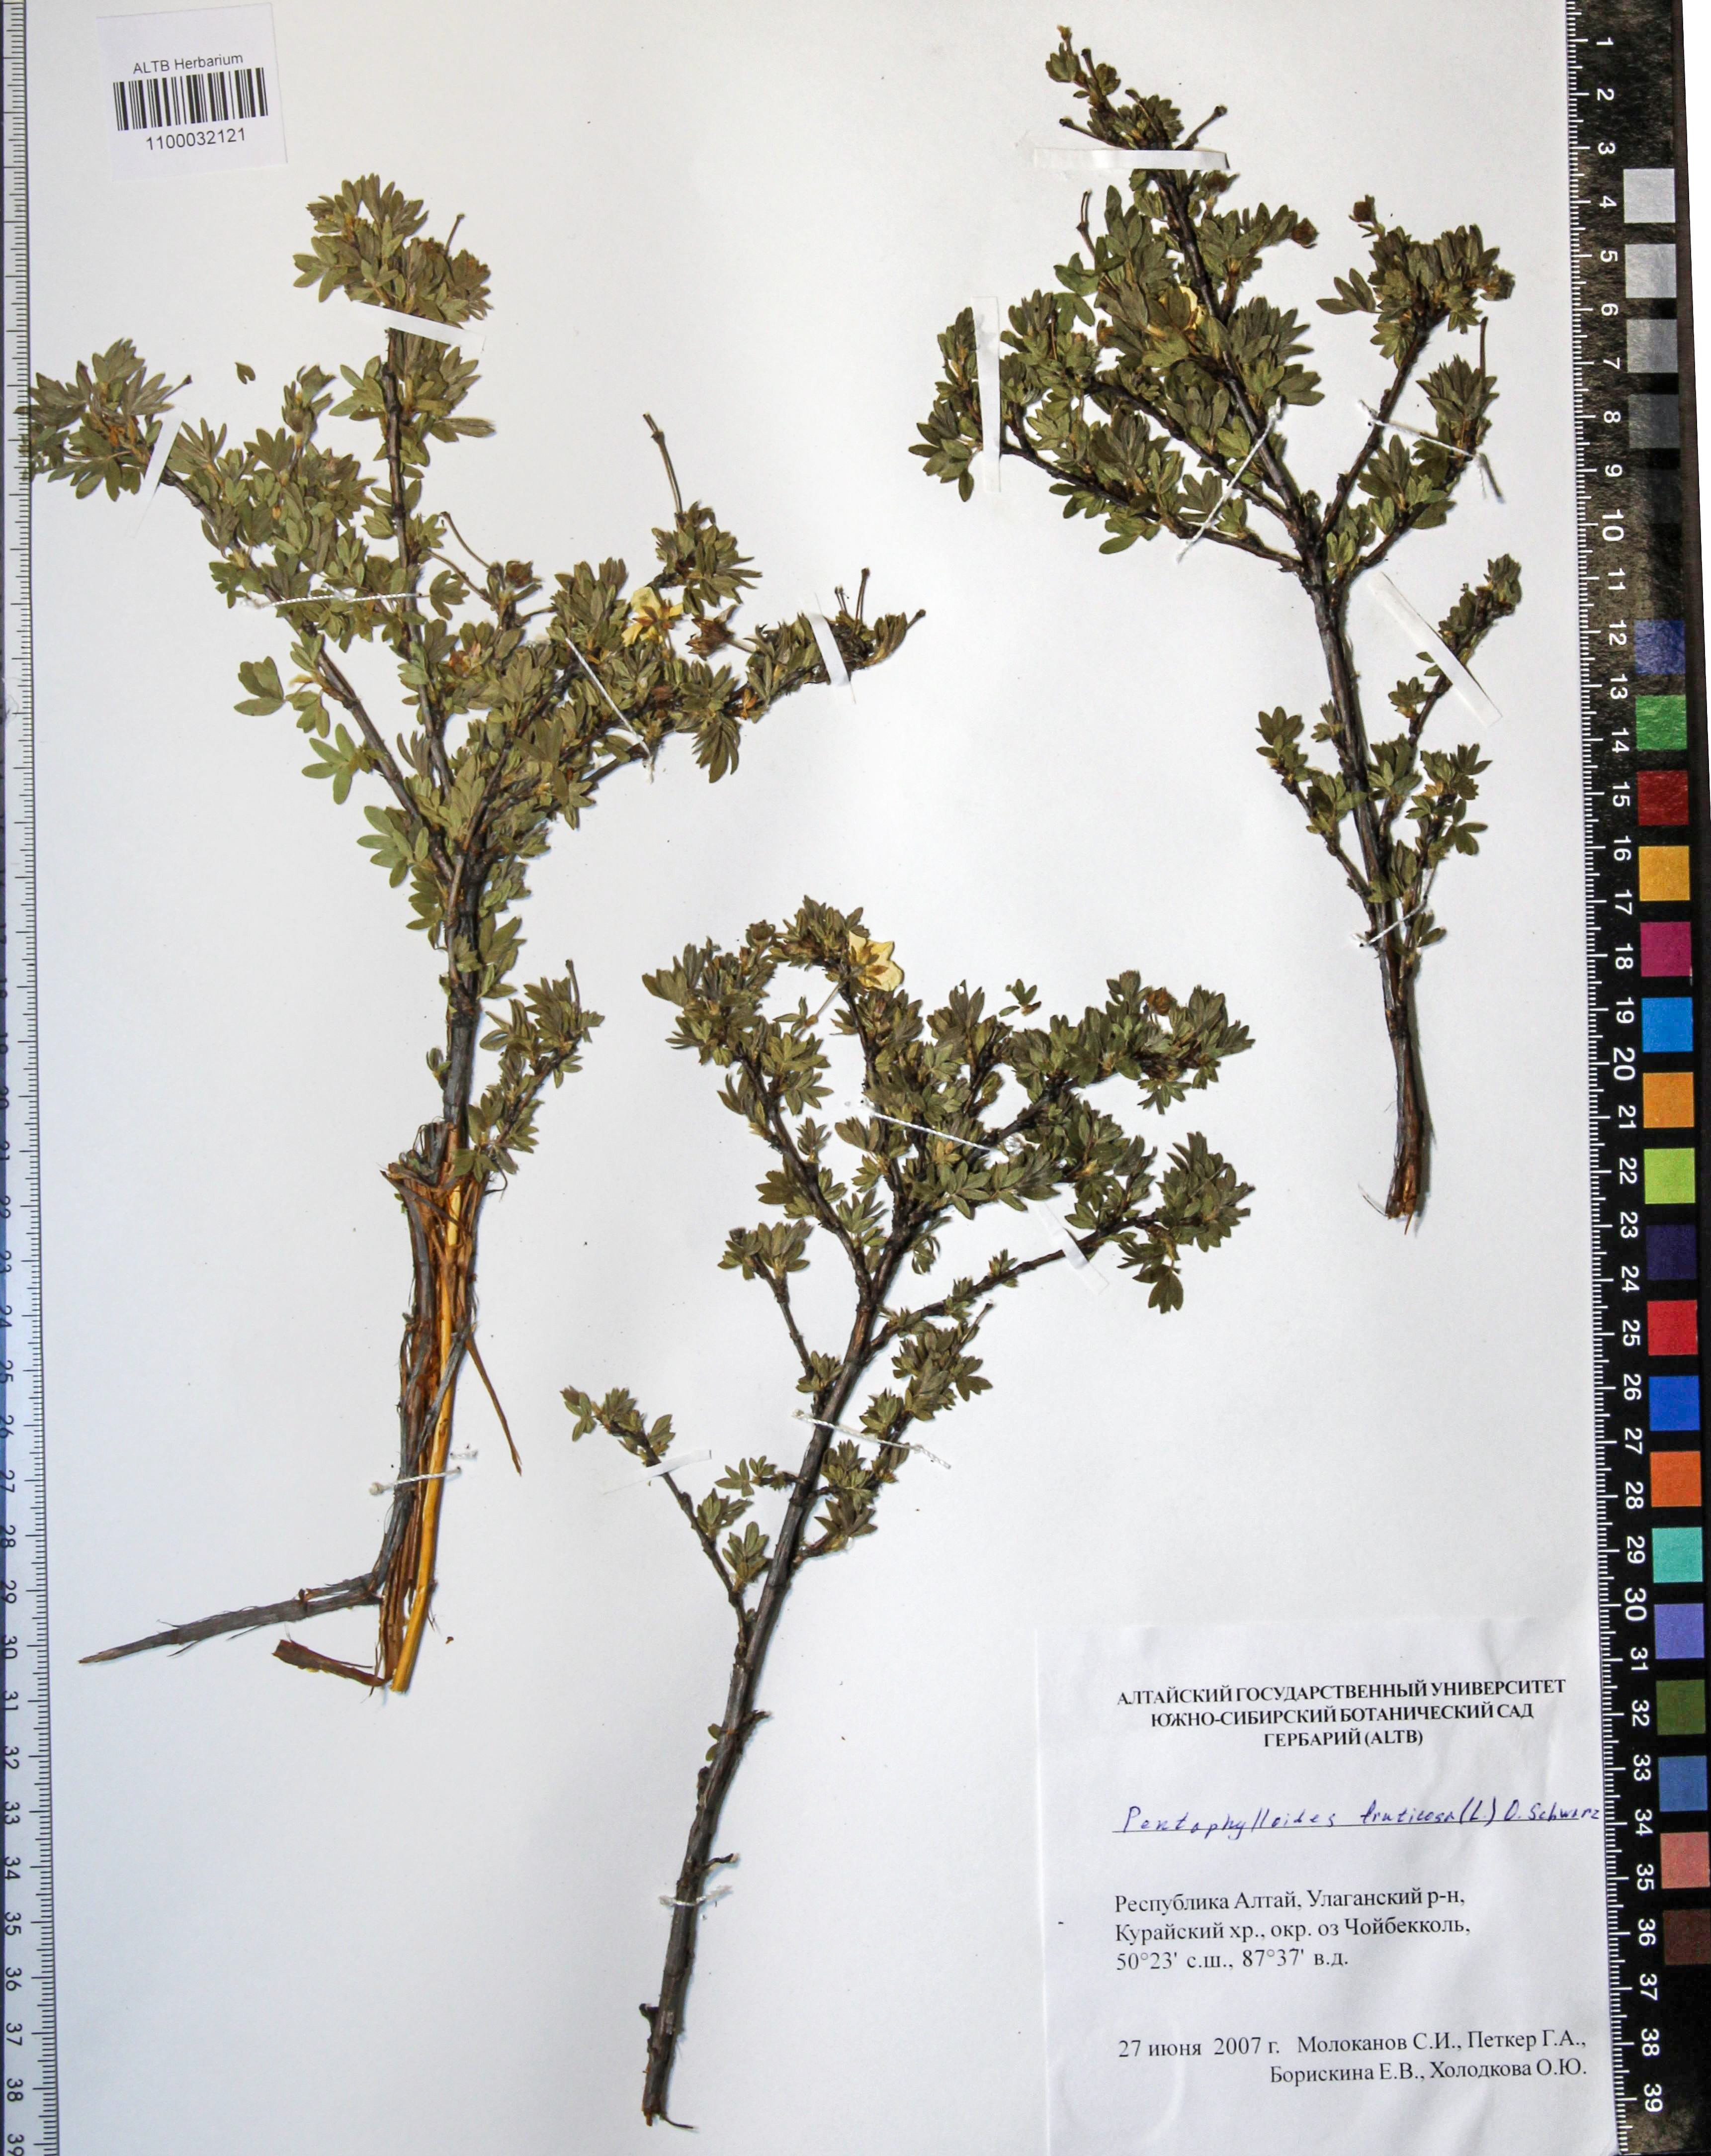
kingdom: Plantae
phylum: Tracheophyta
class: Magnoliopsida
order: Rosales
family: Rosaceae
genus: Dasiphora
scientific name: Dasiphora fruticosa
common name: Shrubby cinquefoil
